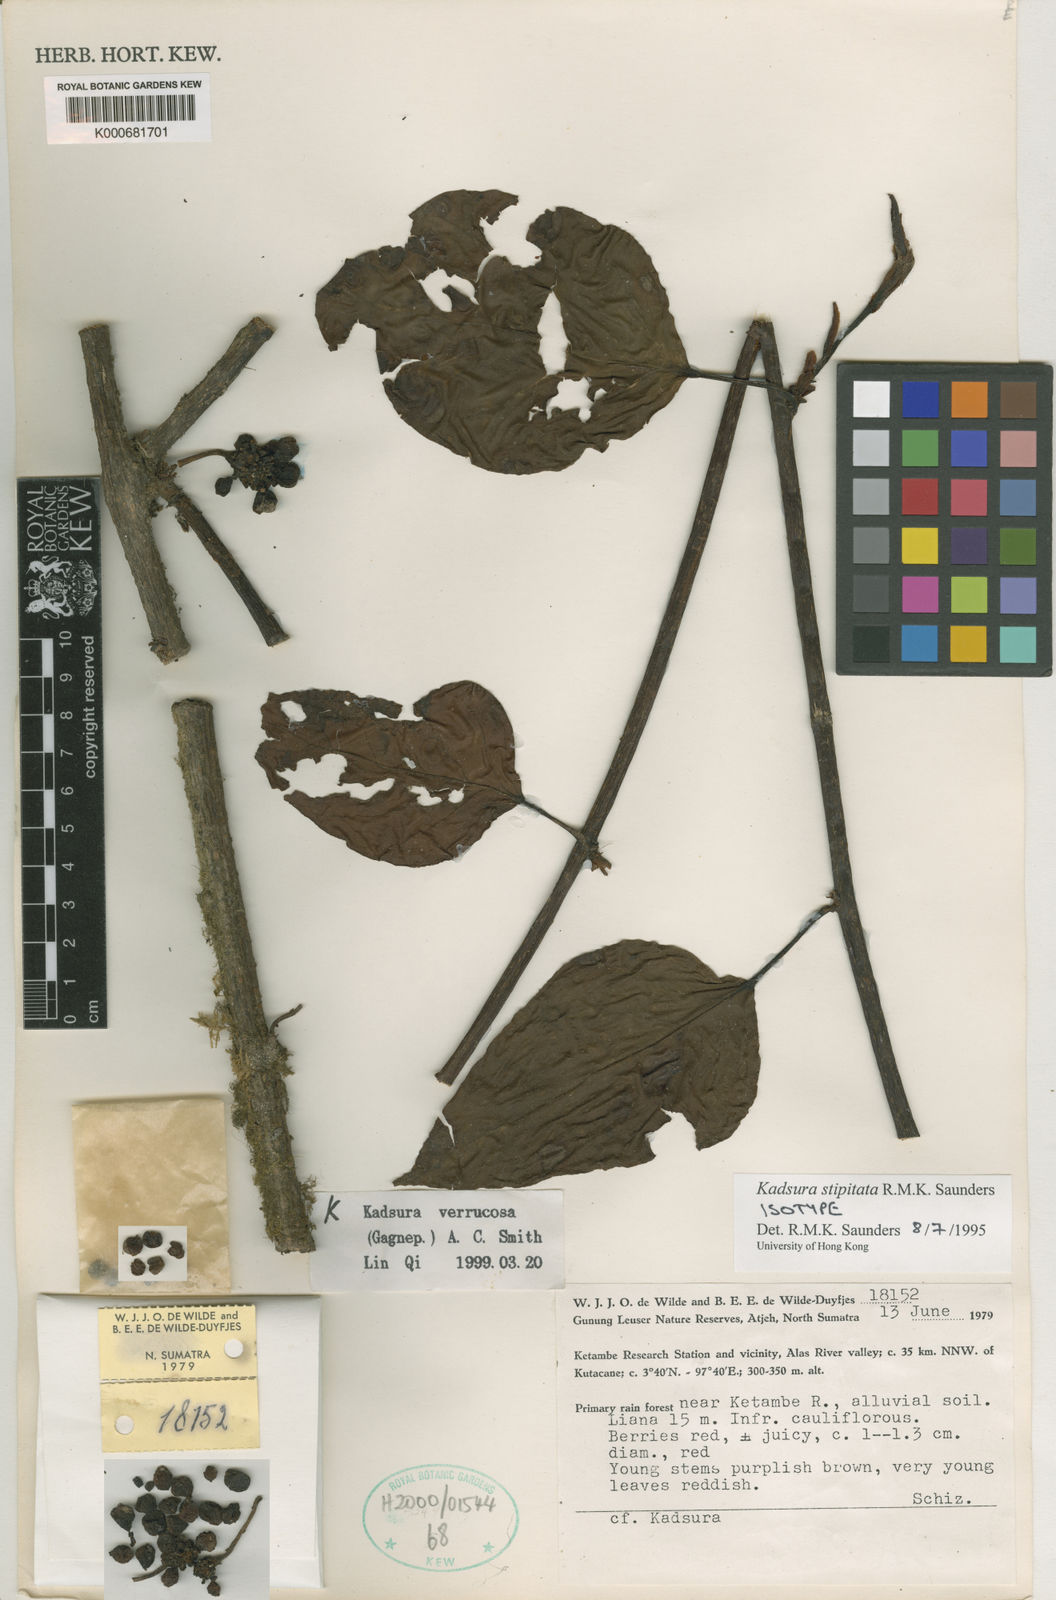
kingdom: Plantae
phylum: Tracheophyta
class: Magnoliopsida
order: Austrobaileyales
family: Schisandraceae
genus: Kadsura
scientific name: Kadsura verrucosa
